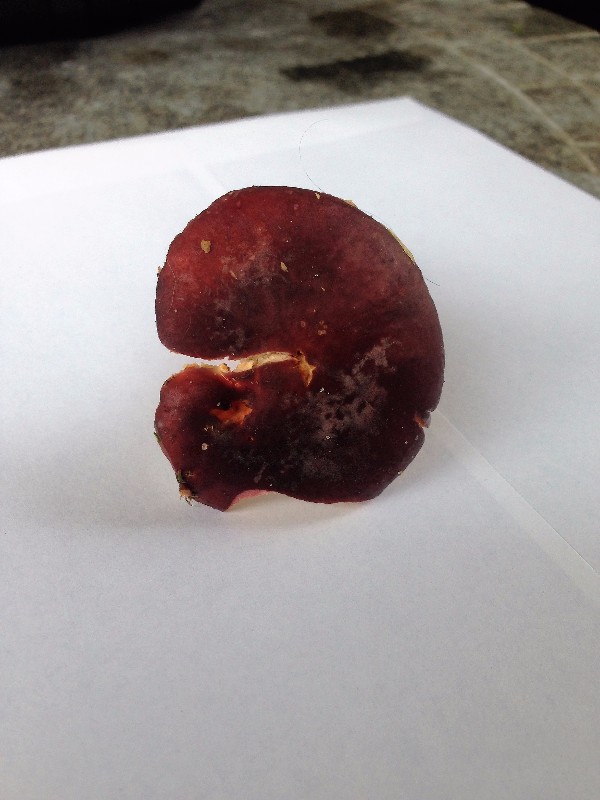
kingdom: Fungi
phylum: Basidiomycota
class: Agaricomycetes
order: Russulales
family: Russulaceae
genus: Russula
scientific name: Russula sardonia
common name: citronbladet skørhat
